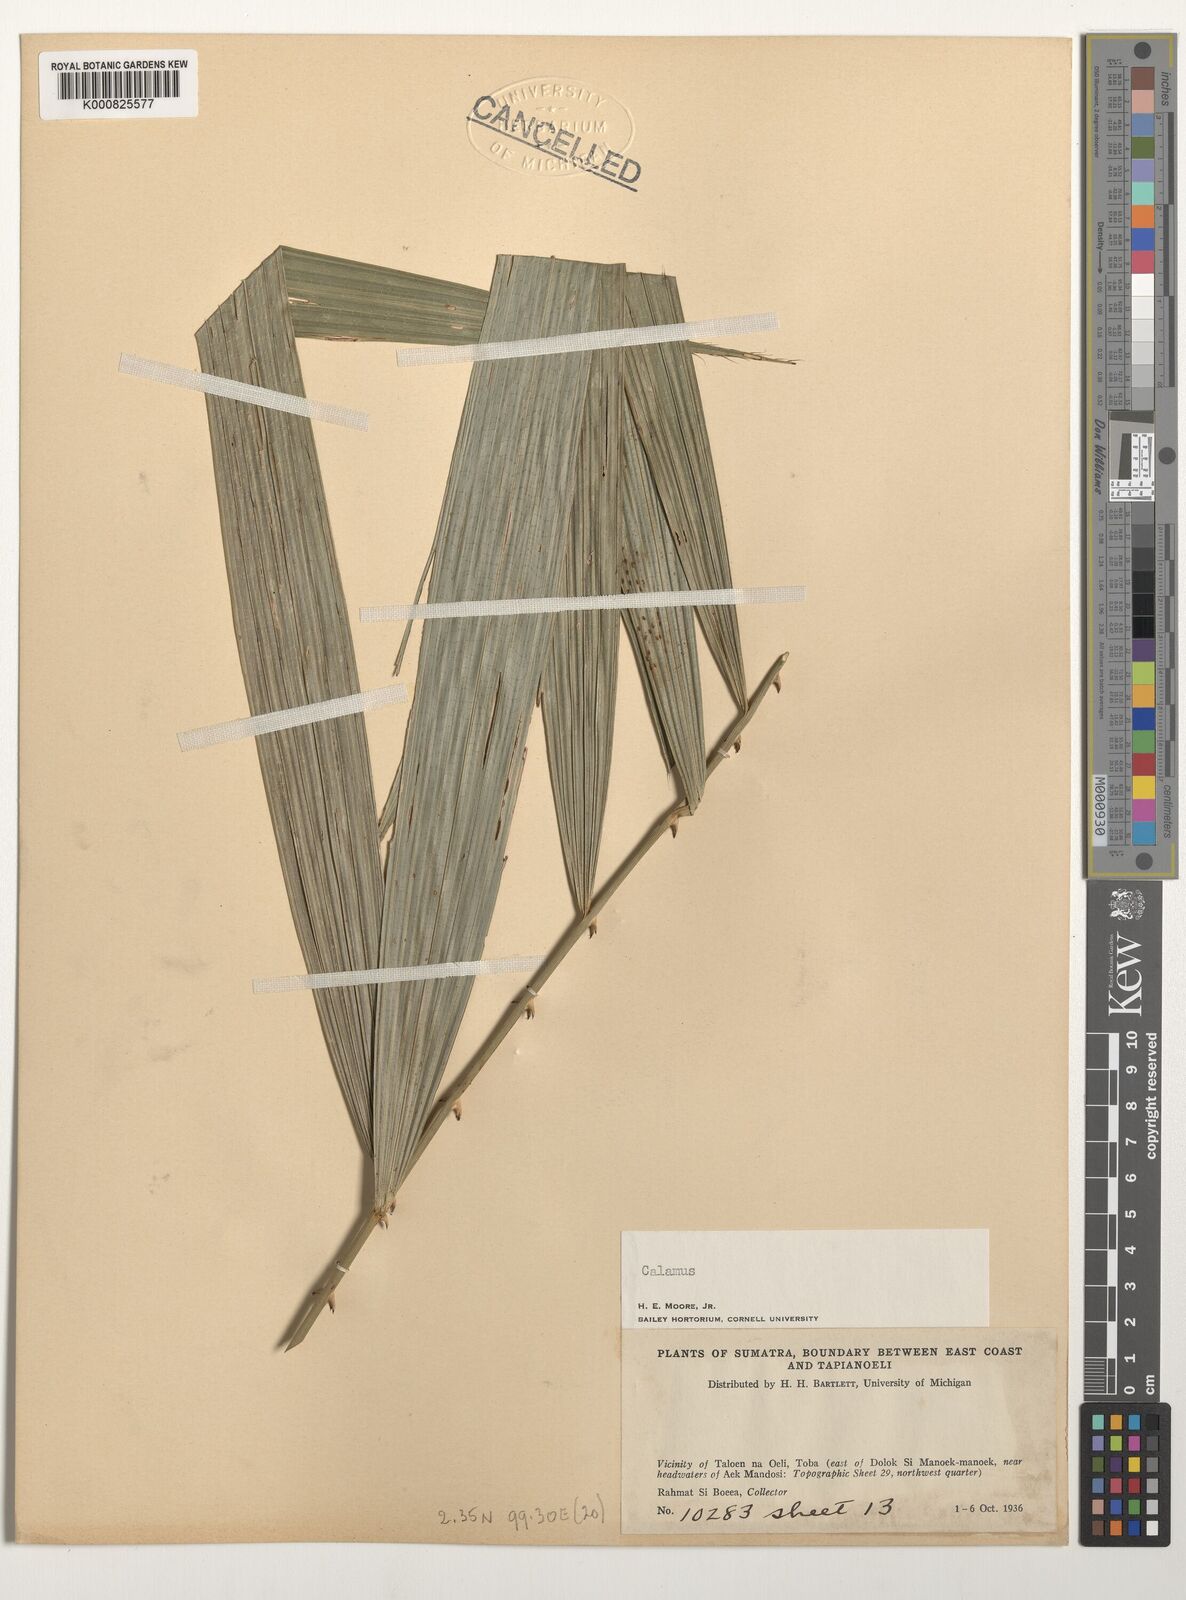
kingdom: Plantae
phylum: Tracheophyta
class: Liliopsida
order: Arecales
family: Arecaceae
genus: Calamus
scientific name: Calamus
